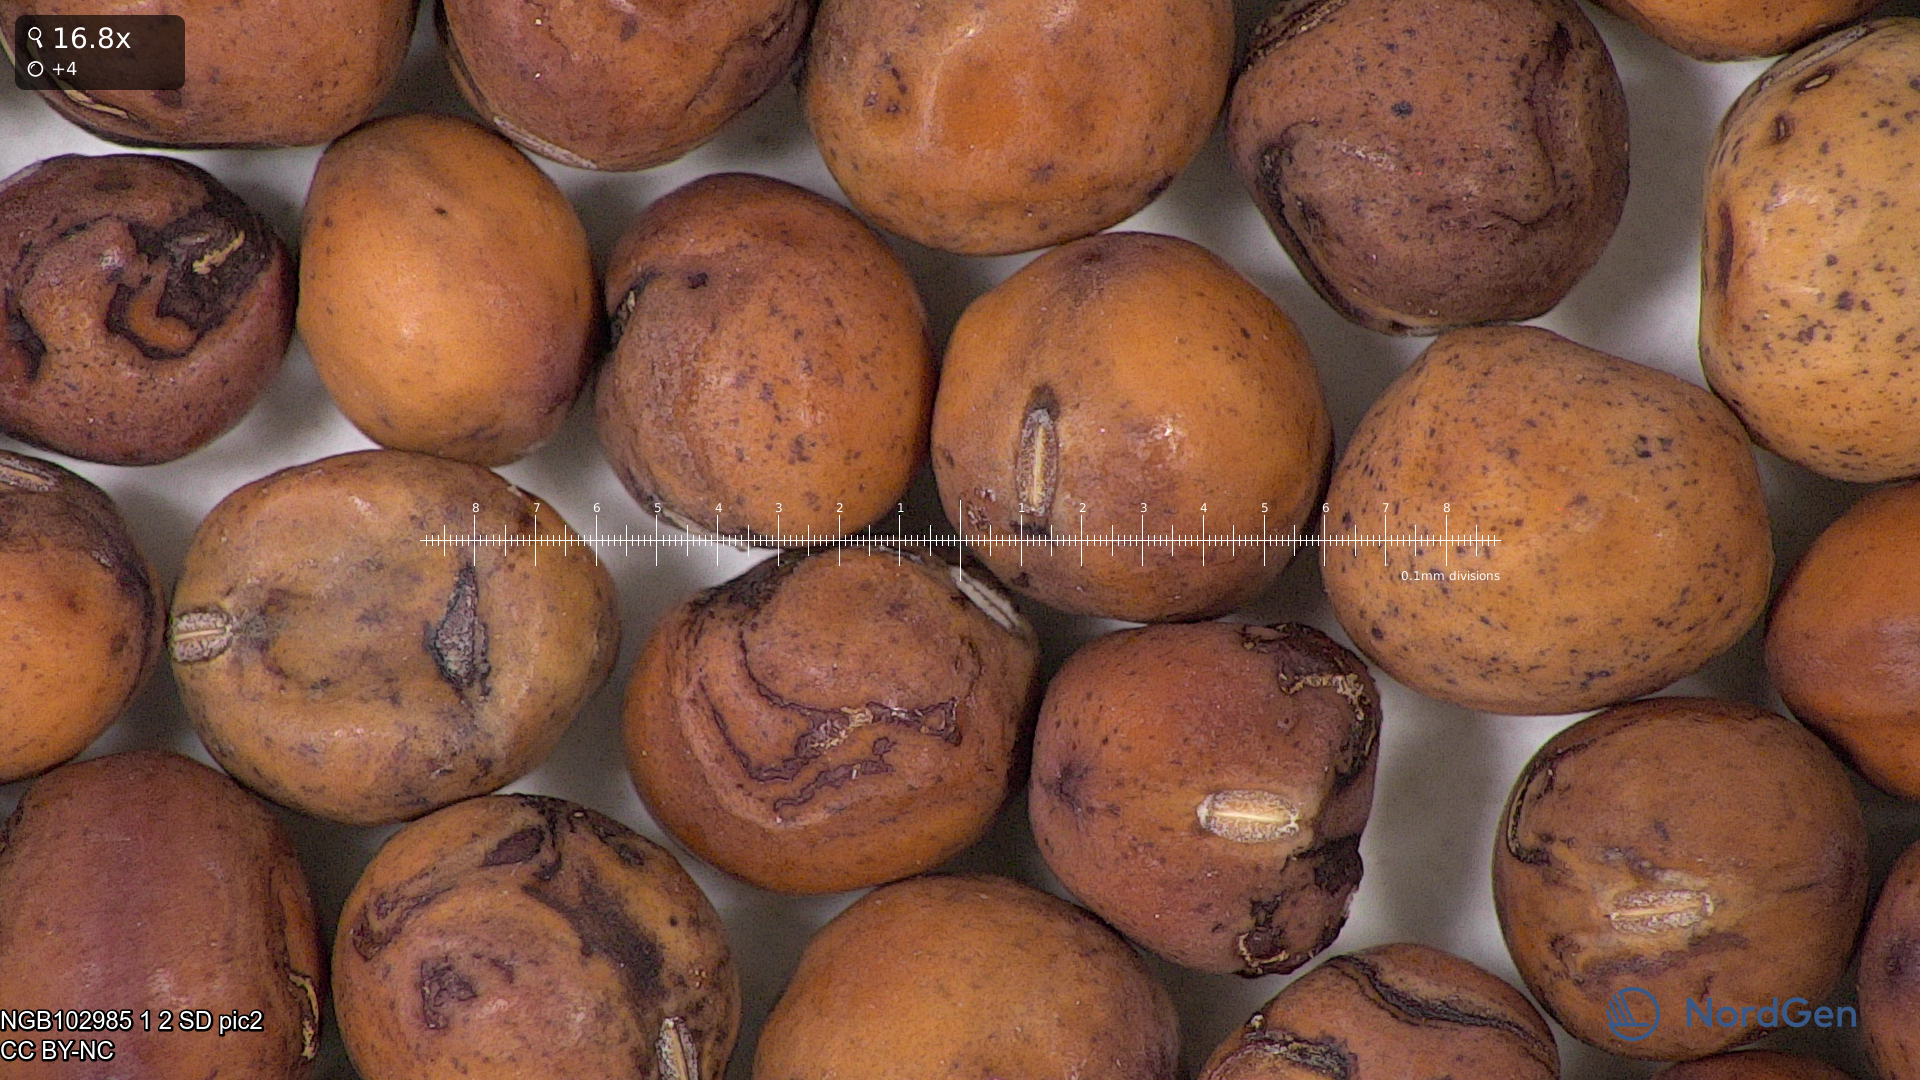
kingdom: Plantae
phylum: Tracheophyta
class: Magnoliopsida
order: Fabales
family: Fabaceae
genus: Lathyrus
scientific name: Lathyrus oleraceus
